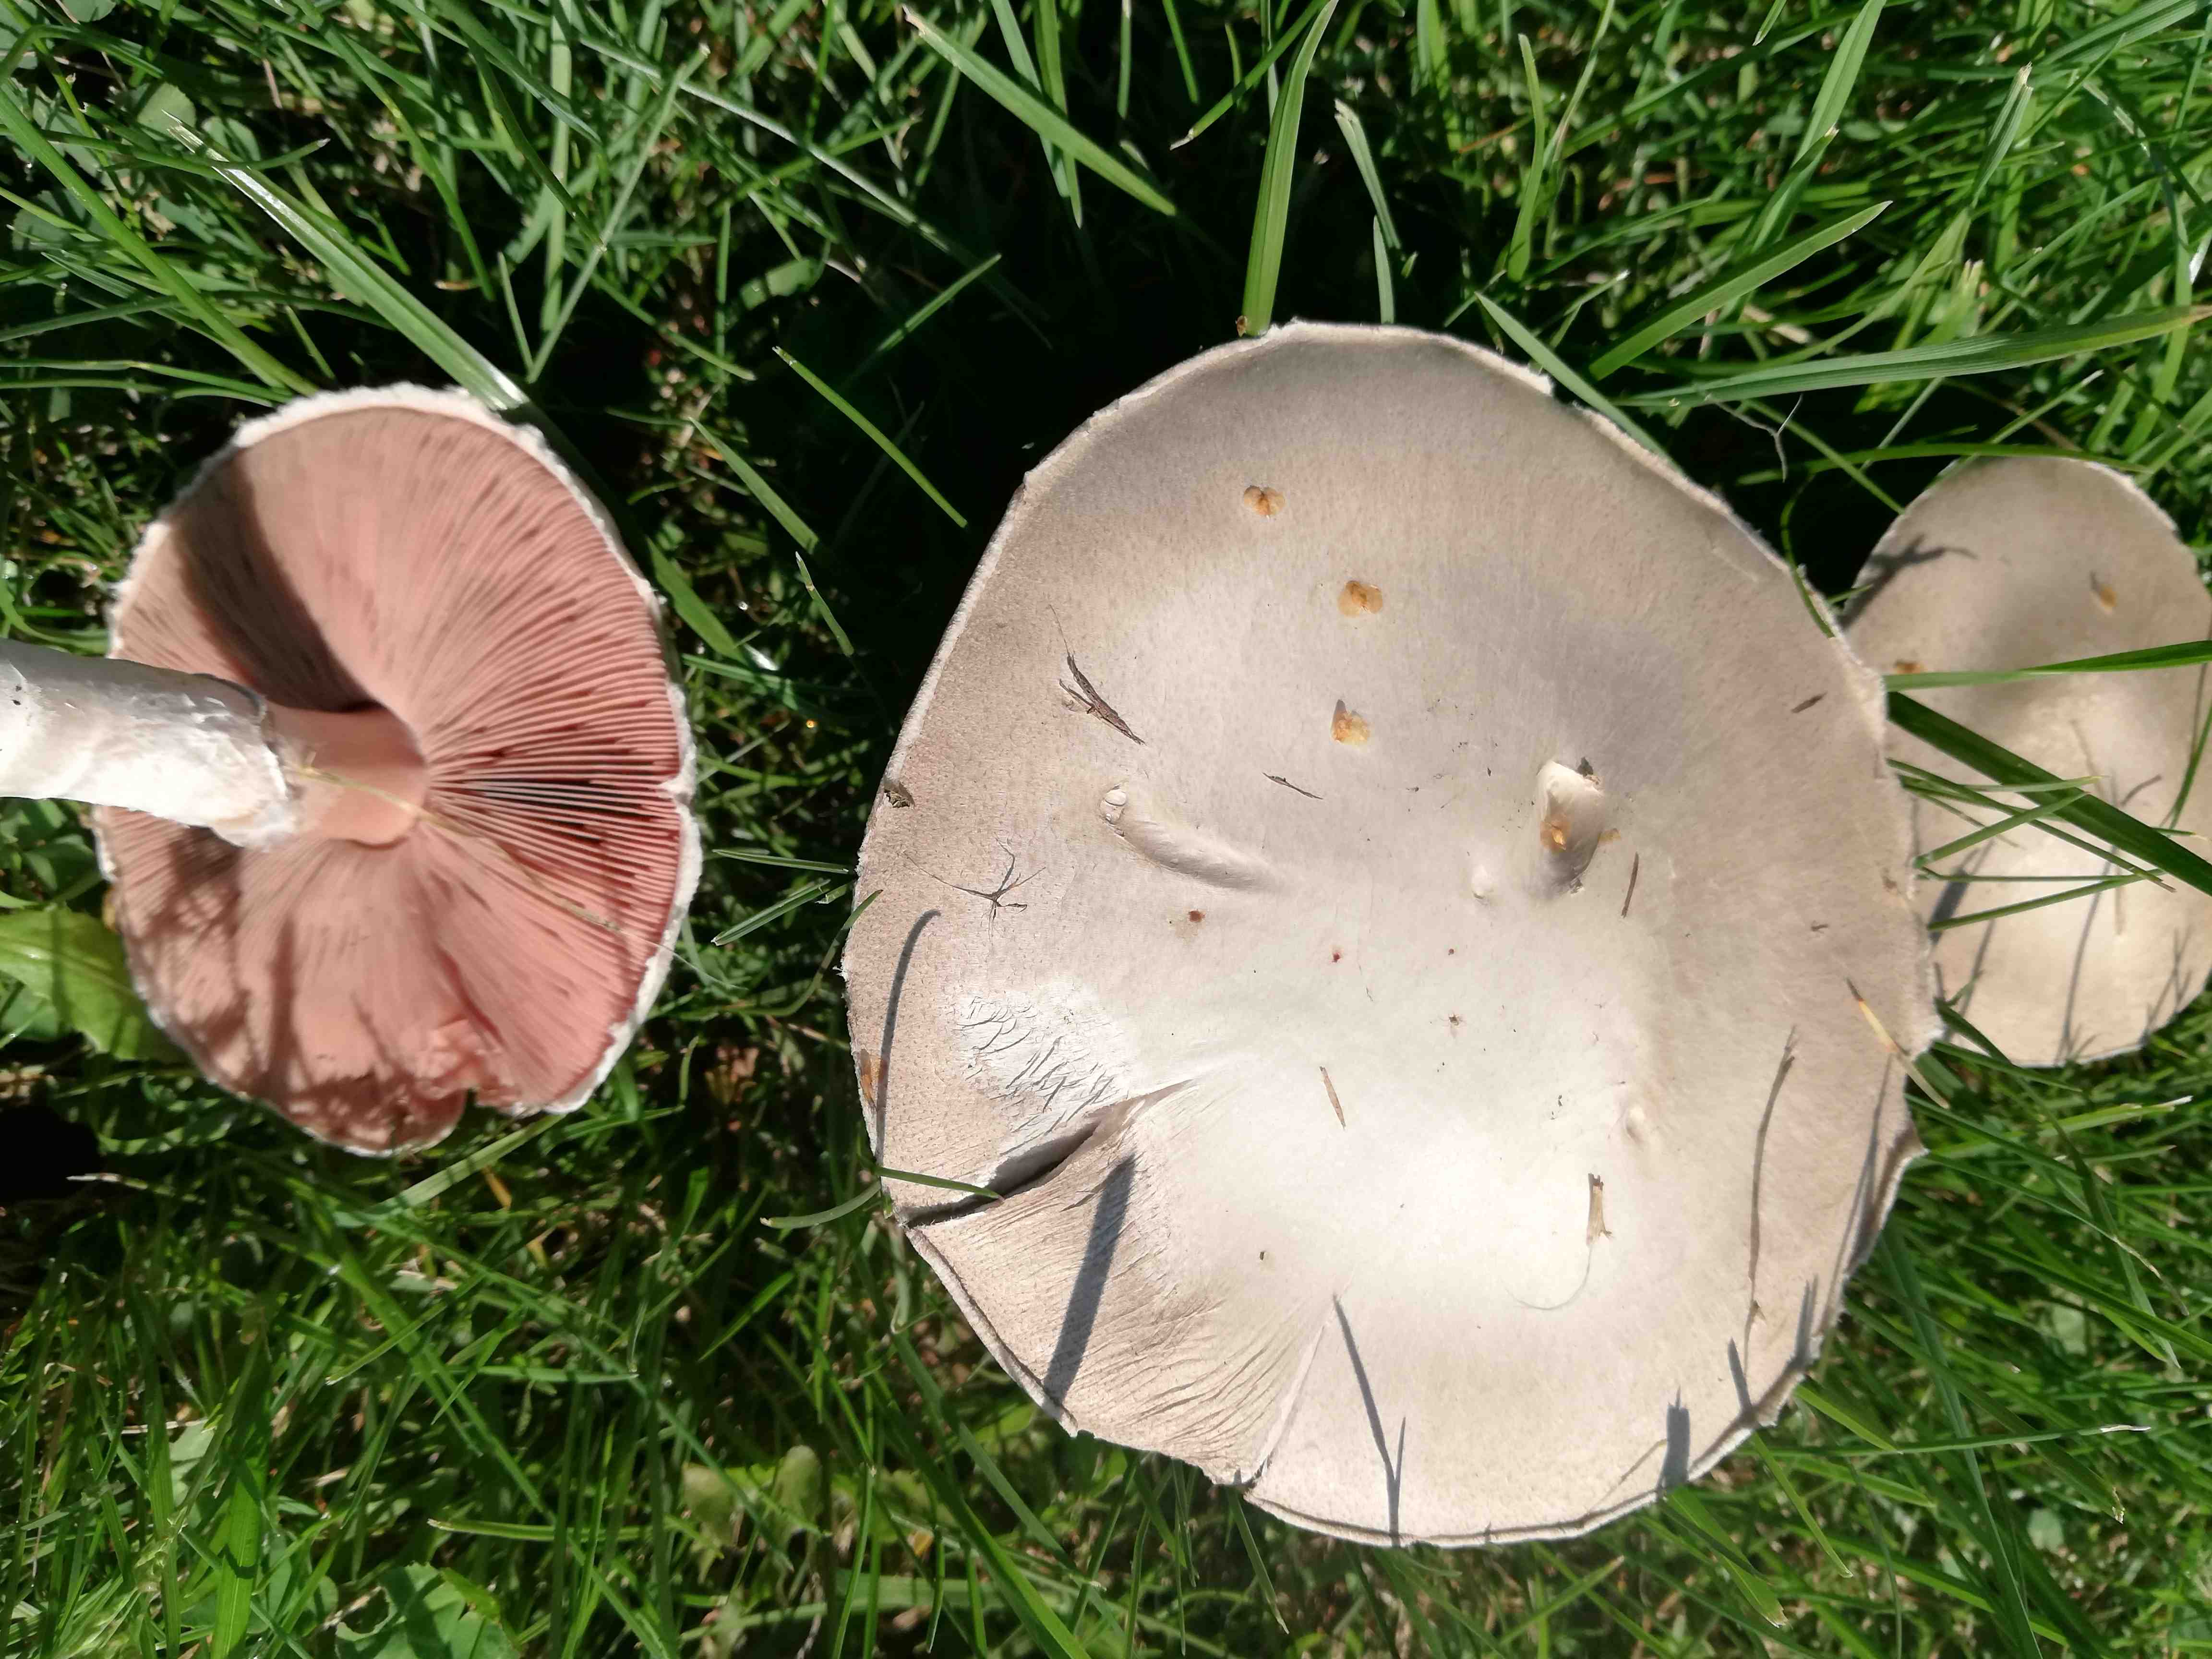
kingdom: Fungi
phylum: Basidiomycota
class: Agaricomycetes
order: Agaricales
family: Agaricaceae
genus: Agaricus
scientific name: Agaricus campestris
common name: mark-champignon
